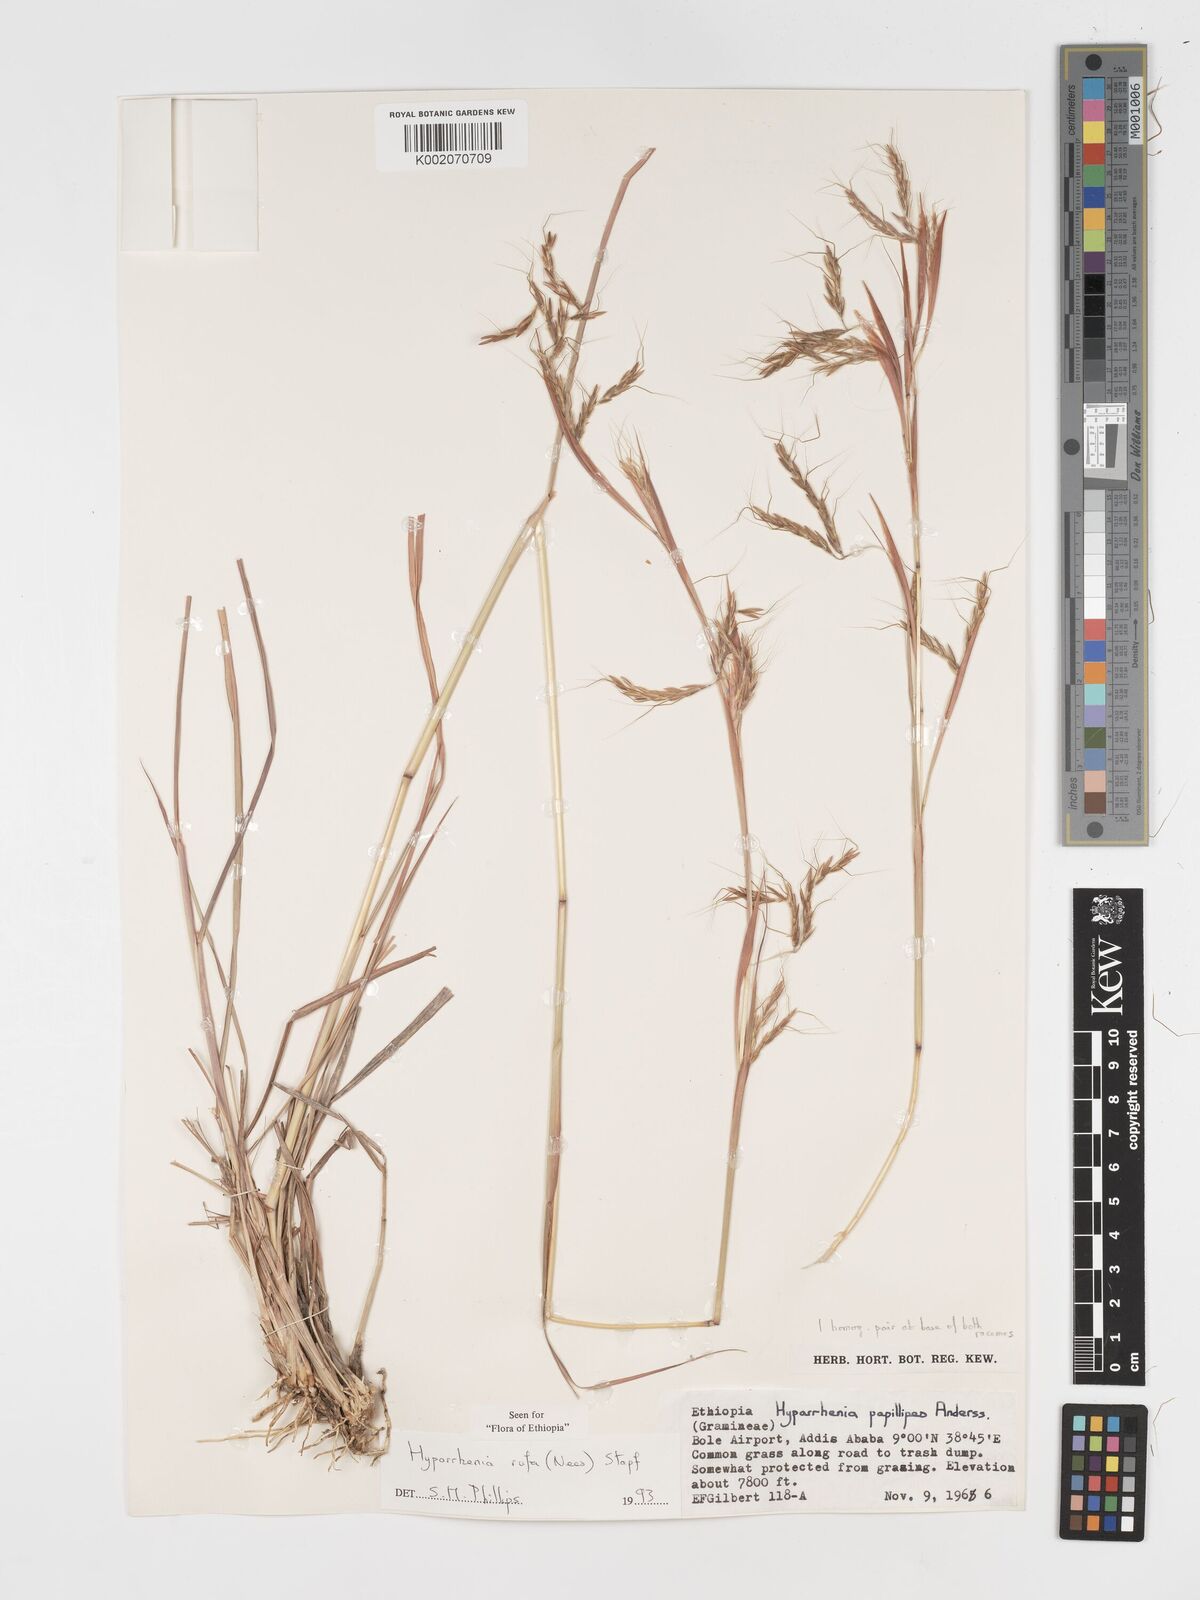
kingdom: Plantae
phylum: Tracheophyta
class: Liliopsida
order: Poales
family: Poaceae
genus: Hyparrhenia
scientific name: Hyparrhenia rufa
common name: Jaraguagrass
